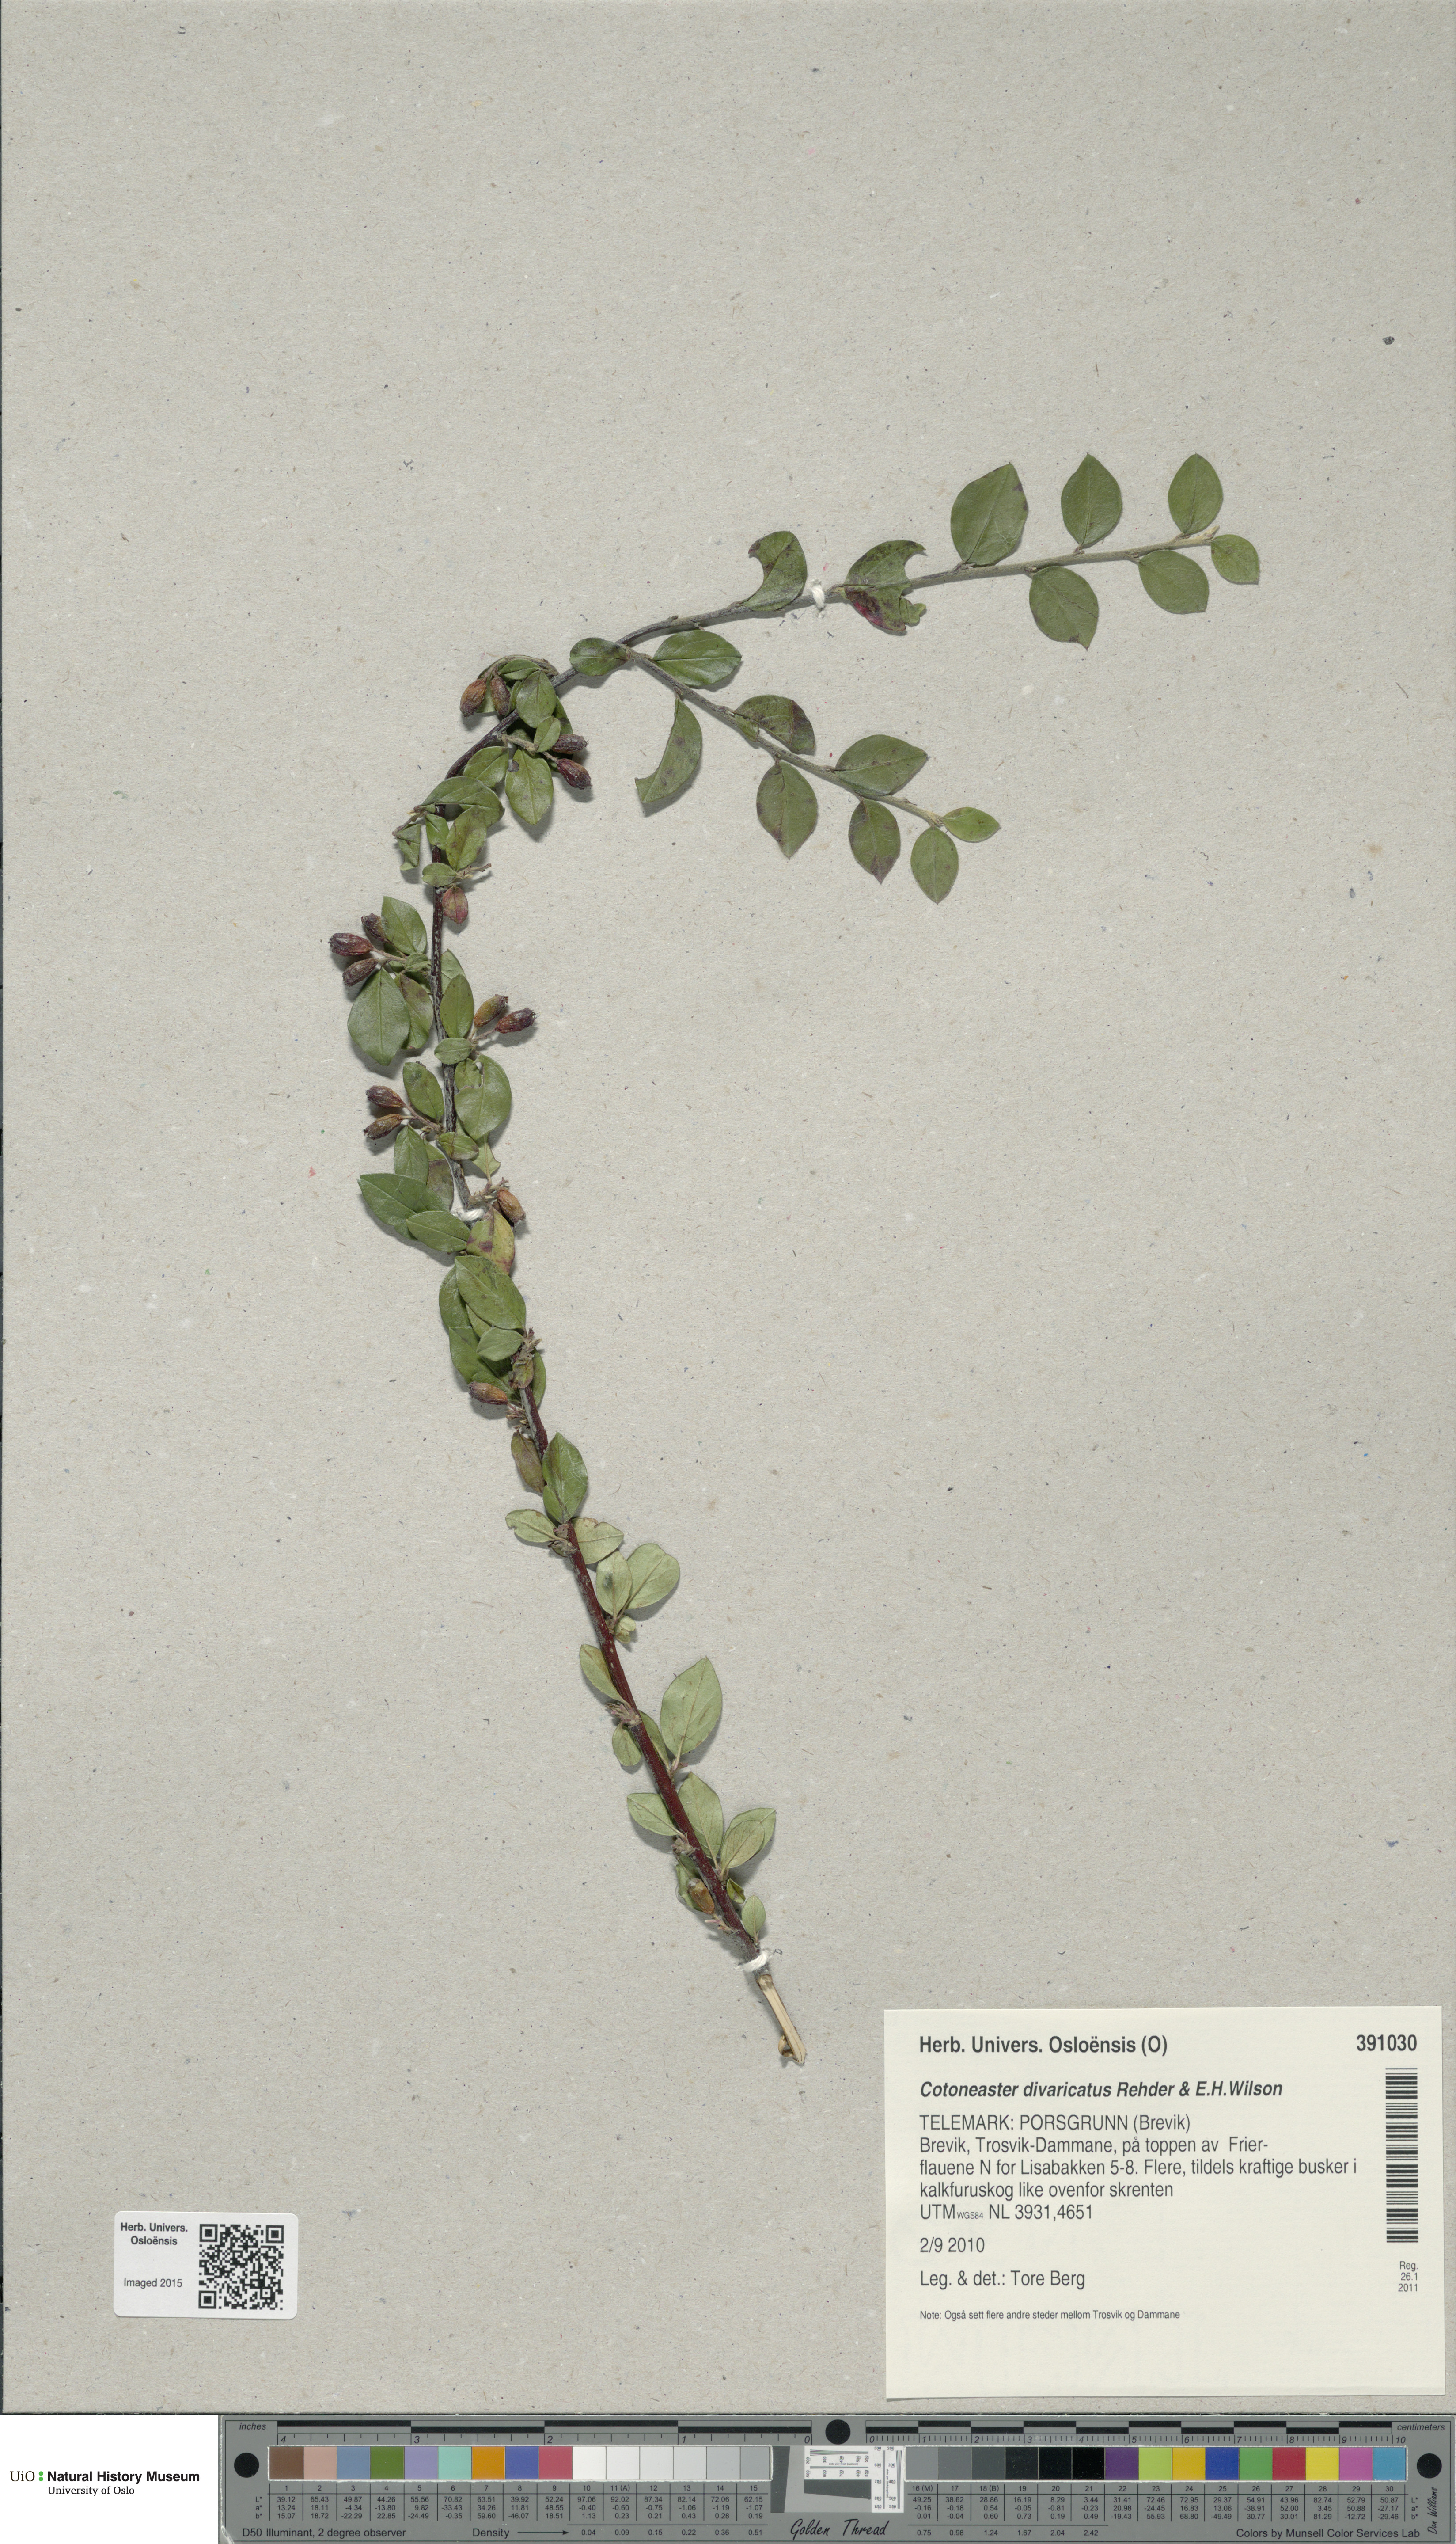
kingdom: Plantae
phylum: Tracheophyta
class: Magnoliopsida
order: Rosales
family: Rosaceae
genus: Cotoneaster
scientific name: Cotoneaster divaricatus
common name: Spreading cotoneaster
